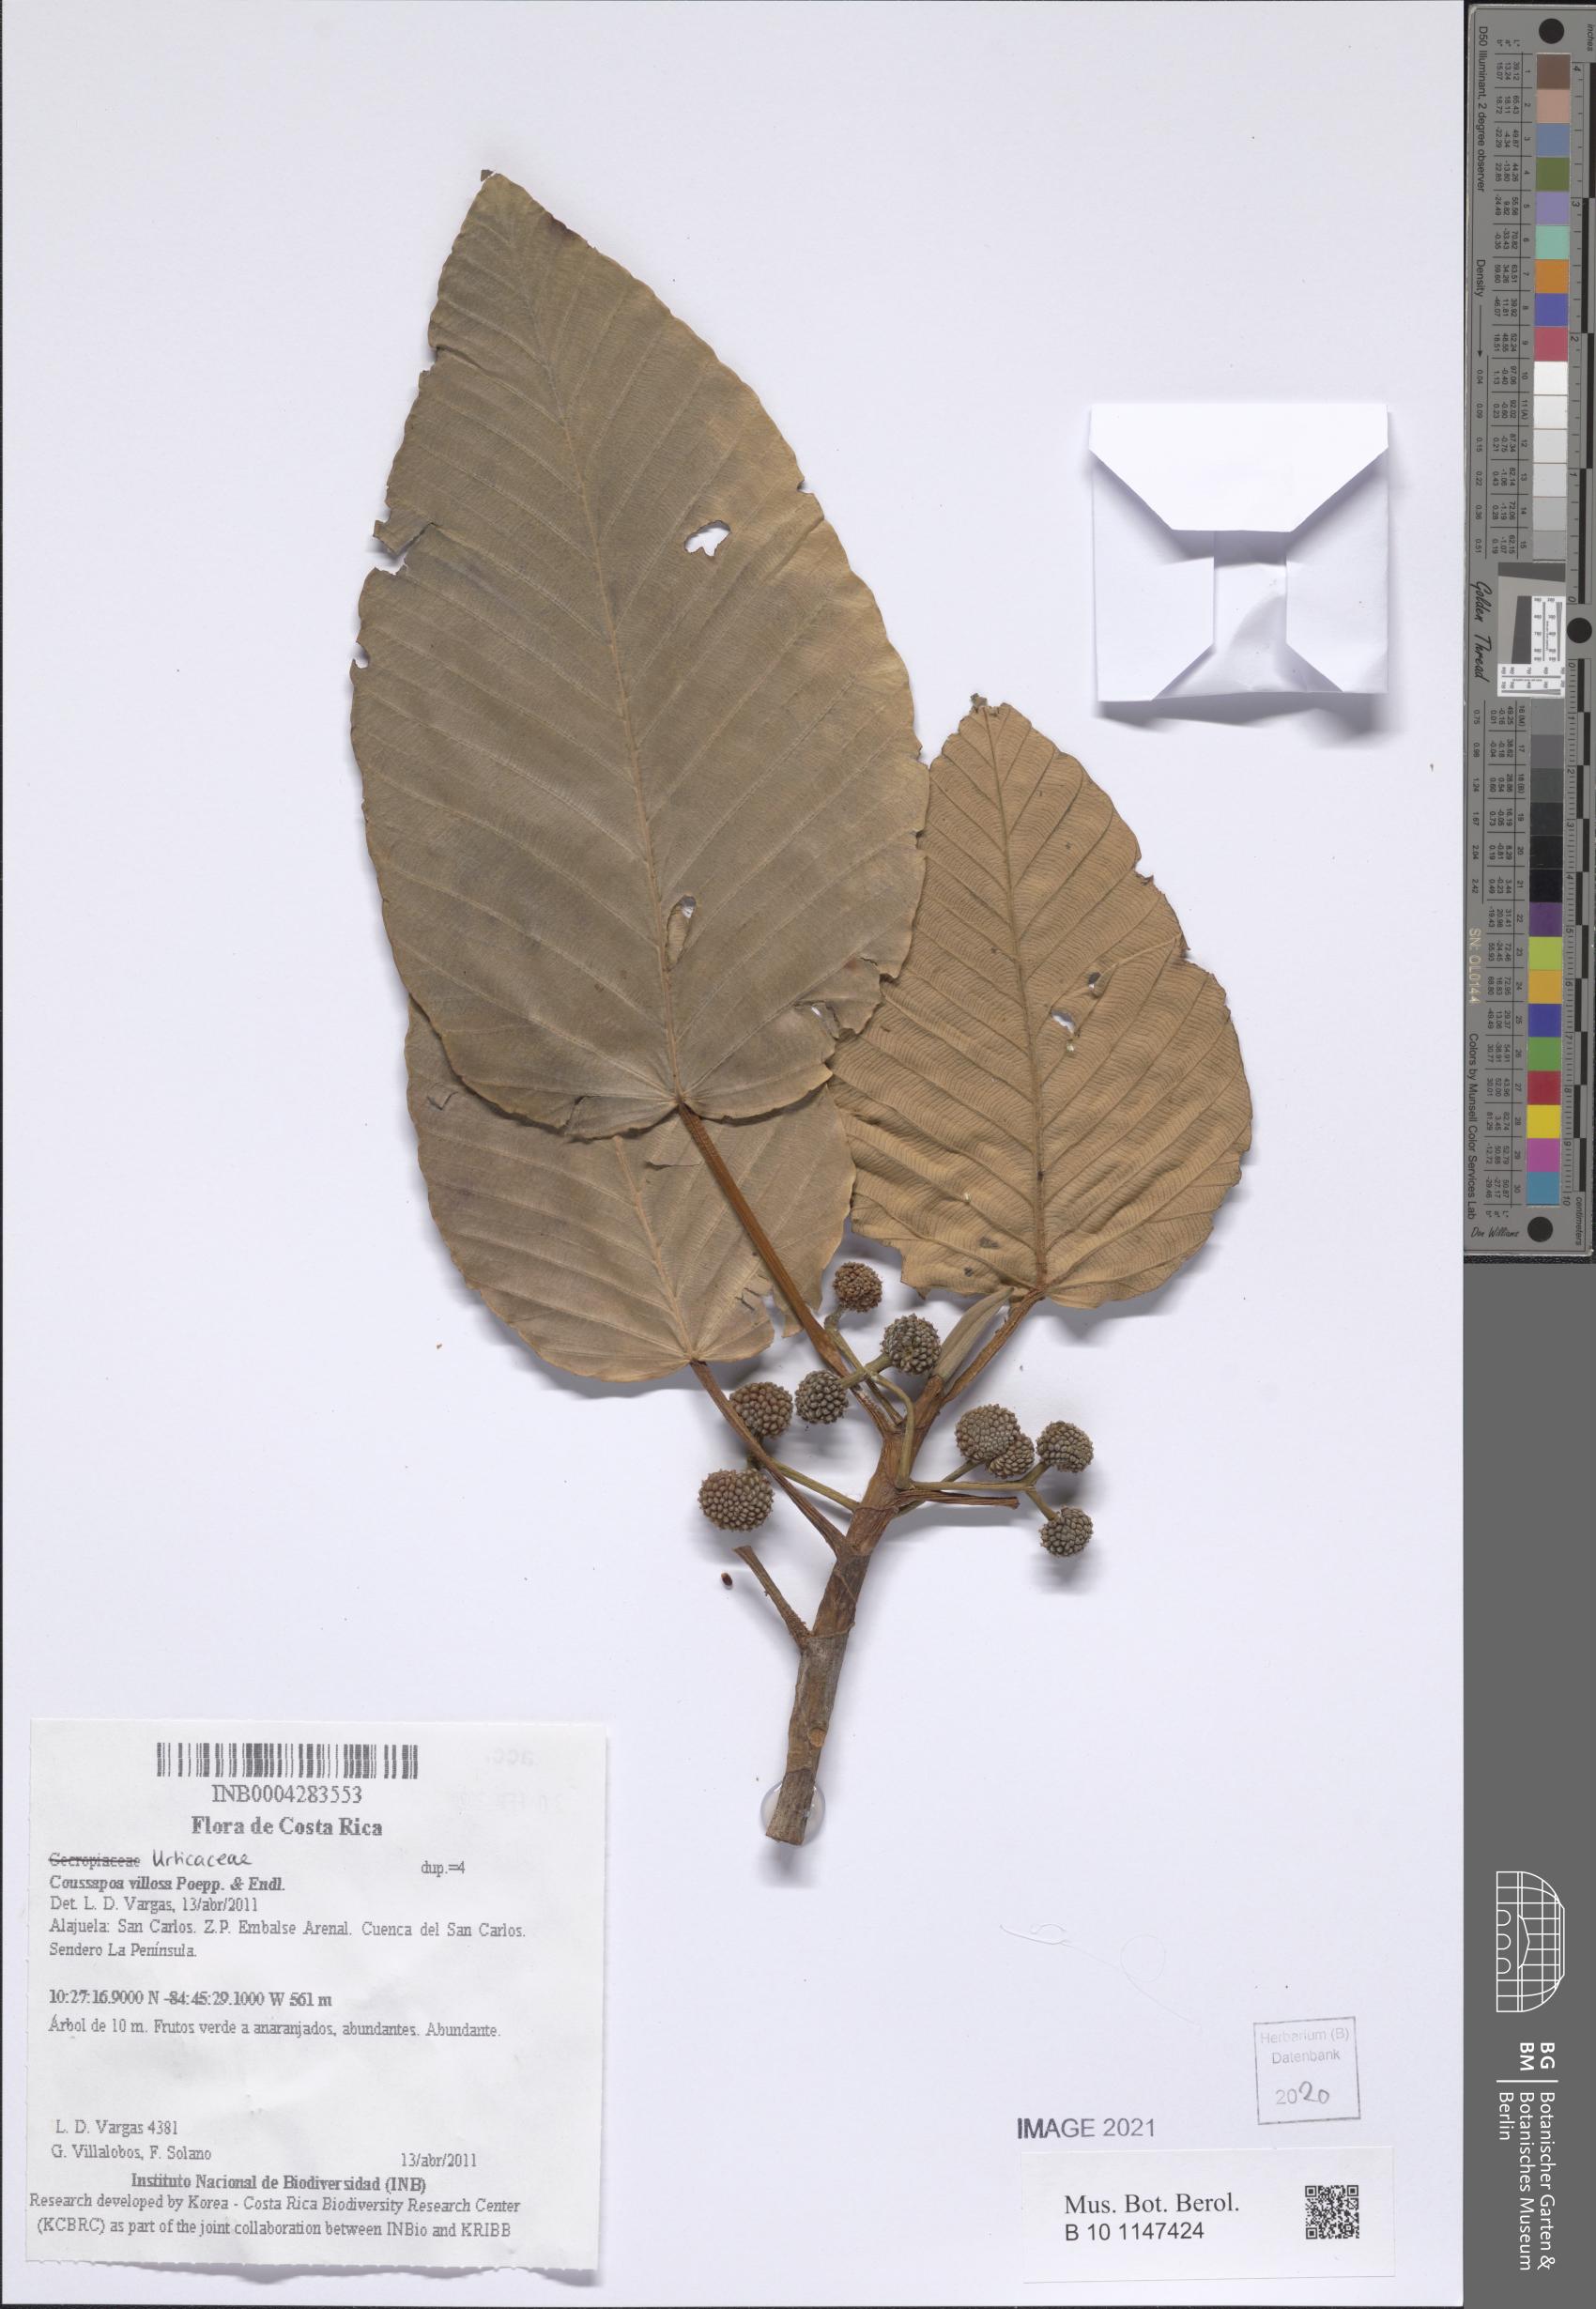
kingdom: Plantae
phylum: Tracheophyta
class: Magnoliopsida
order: Rosales
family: Urticaceae
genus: Coussapoa
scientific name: Coussapoa villosa
